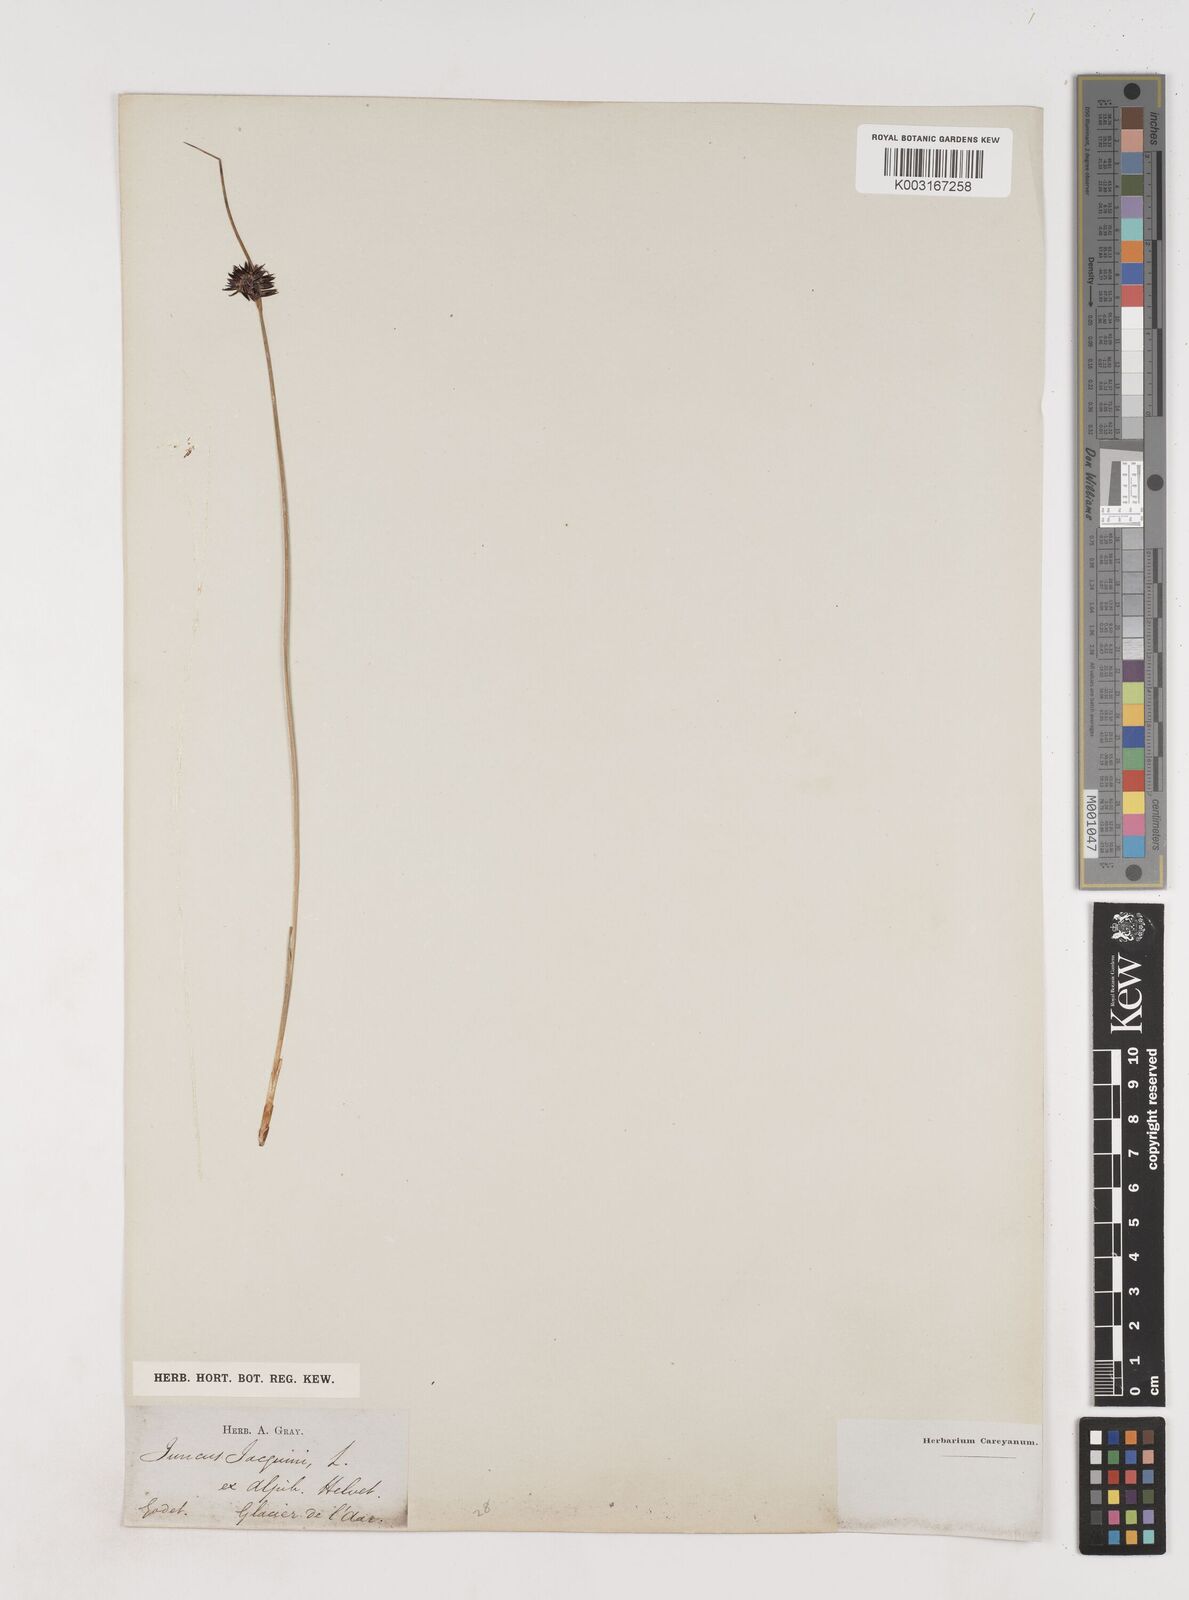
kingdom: Plantae
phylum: Tracheophyta
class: Liliopsida
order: Poales
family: Juncaceae
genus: Juncus
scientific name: Juncus jacquinii
